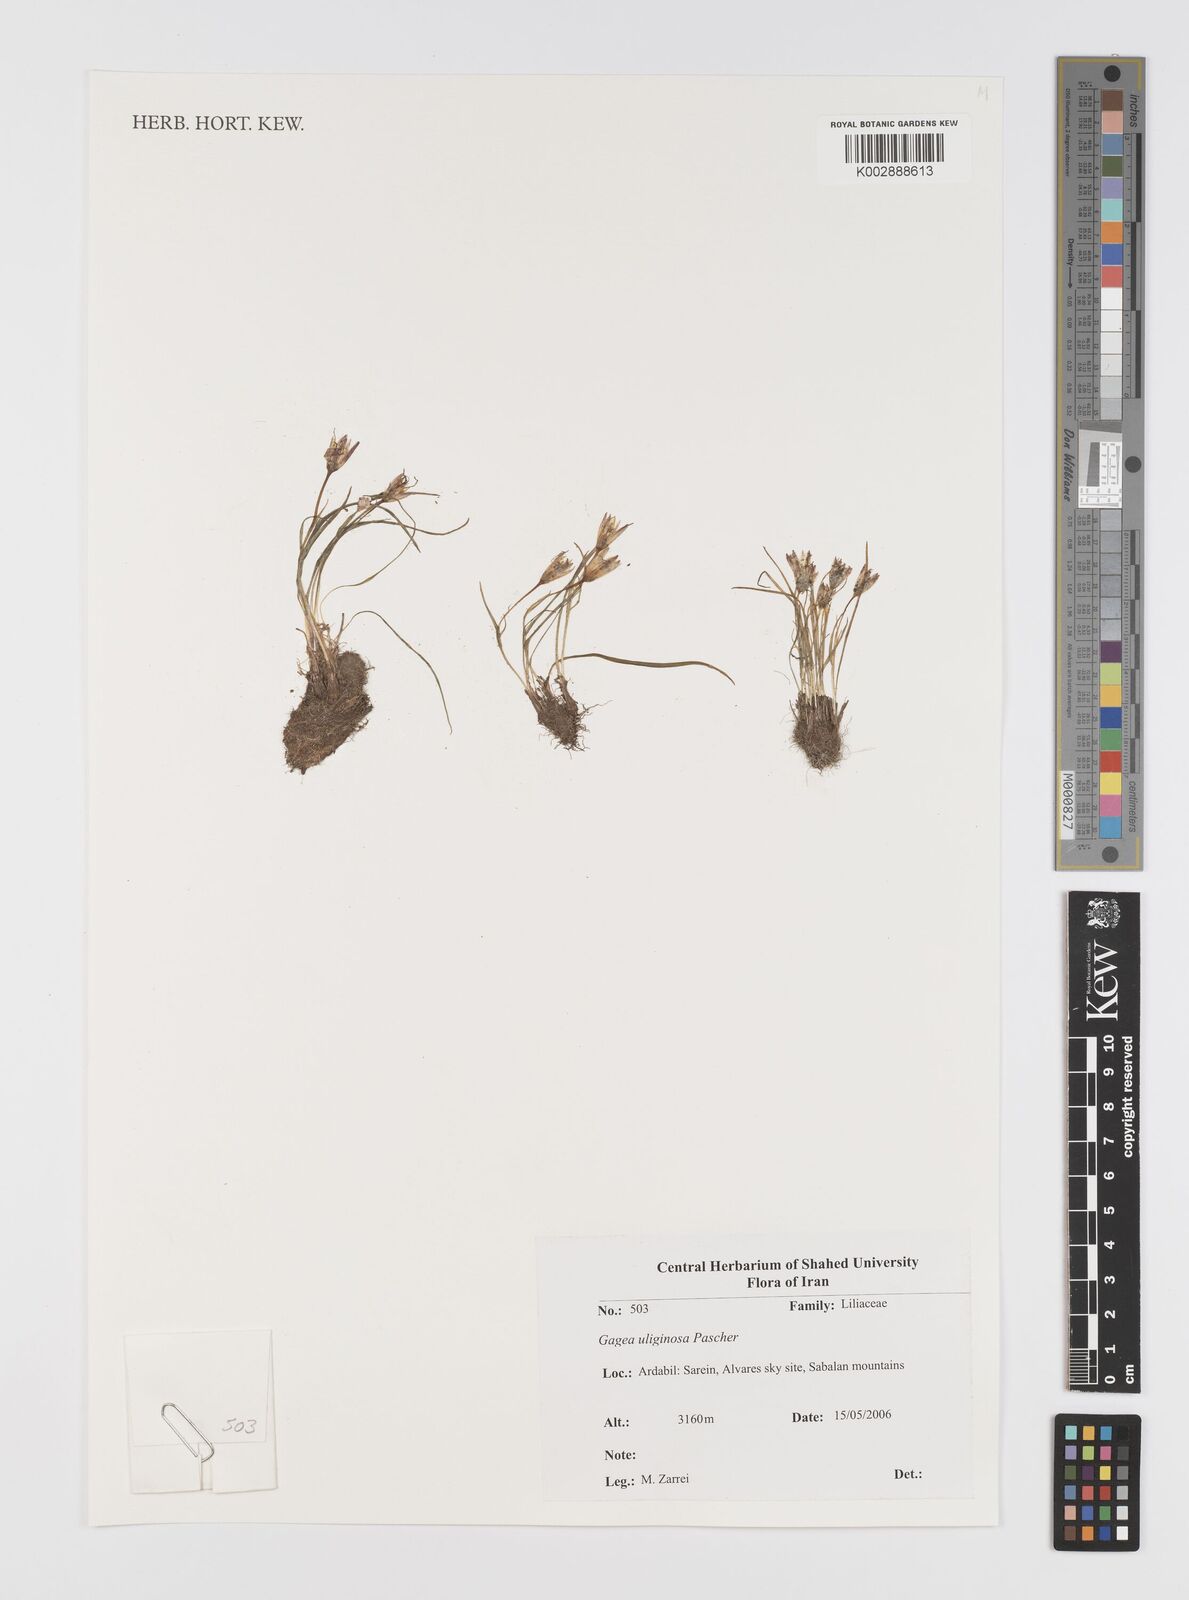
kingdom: Plantae
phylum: Tracheophyta
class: Liliopsida
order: Liliales
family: Liliaceae
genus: Gagea
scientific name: Gagea uliginosa
